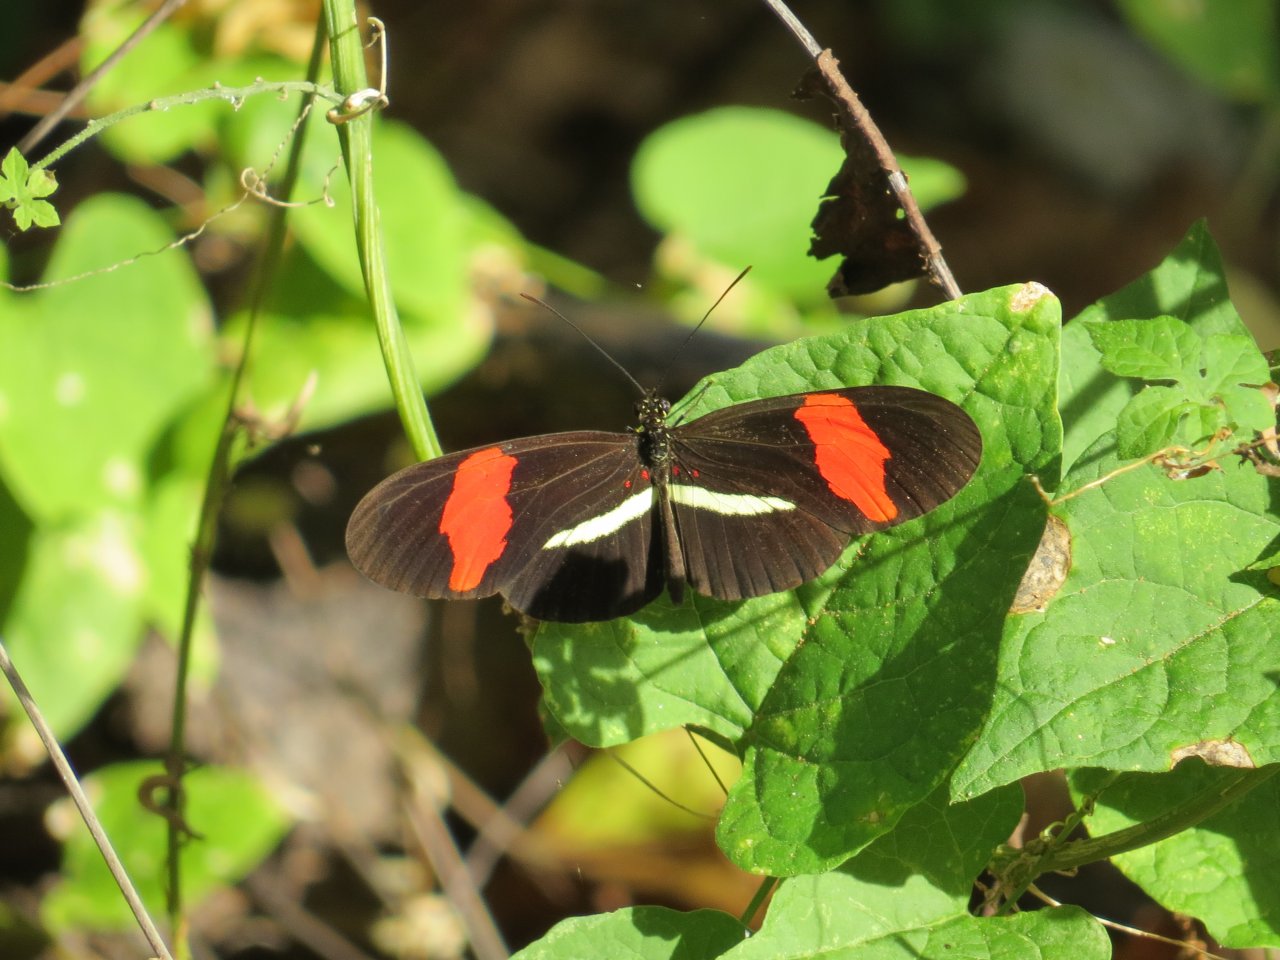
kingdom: Animalia
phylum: Arthropoda
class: Insecta
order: Lepidoptera
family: Nymphalidae
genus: Heliconius
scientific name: Heliconius erato
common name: Erato Heliconian
